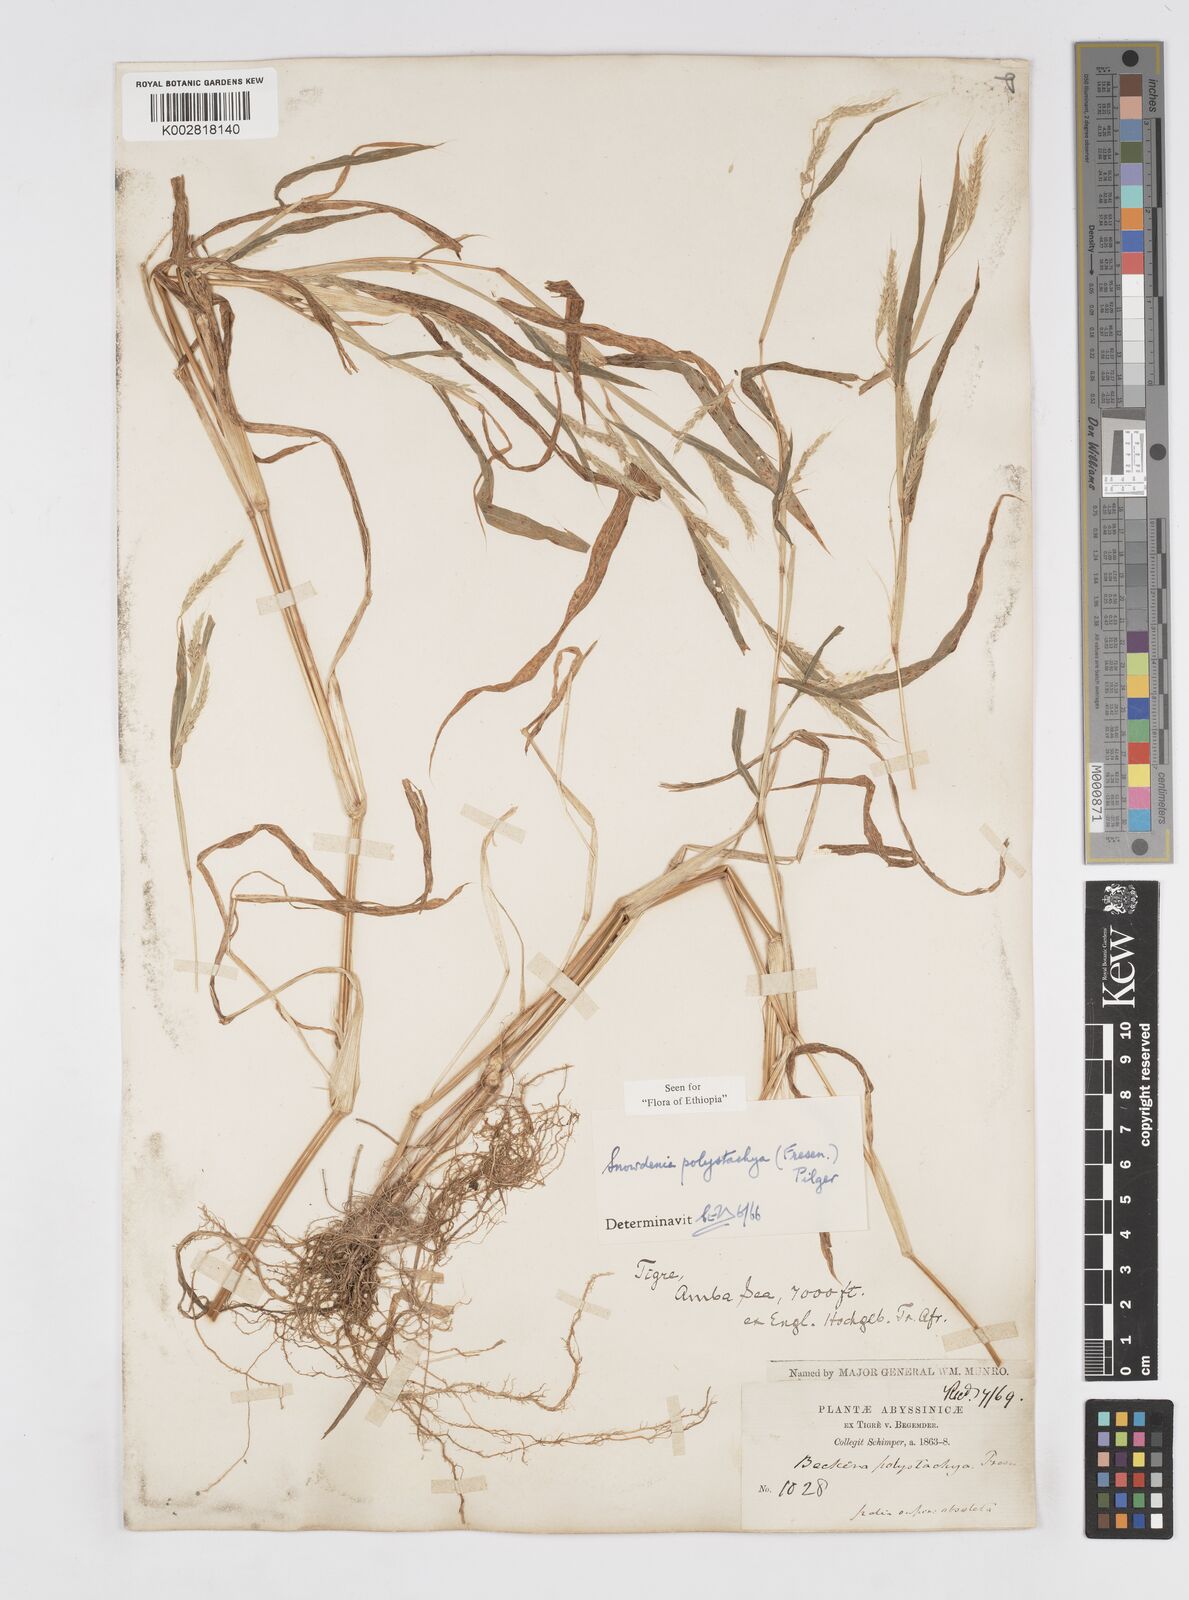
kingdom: Plantae
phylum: Tracheophyta
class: Liliopsida
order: Poales
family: Poaceae
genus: Snowdenia
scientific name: Snowdenia polystachya
